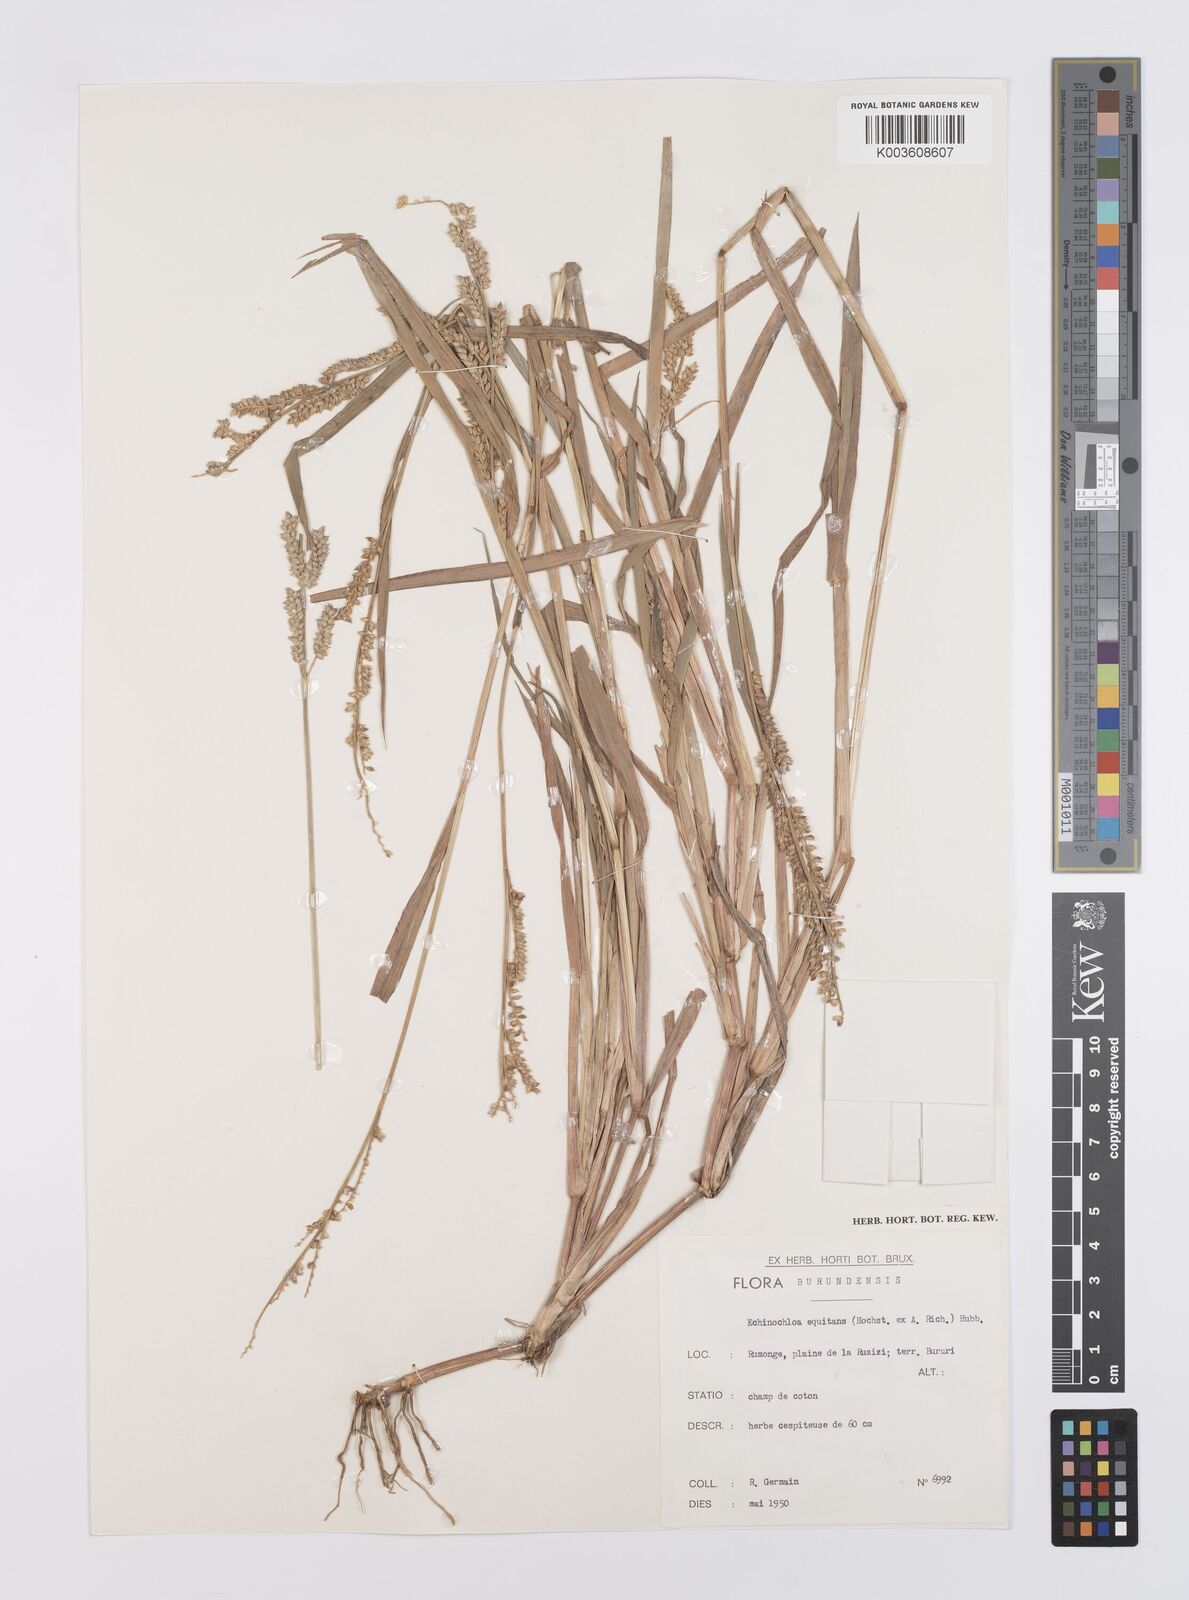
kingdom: Plantae
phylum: Tracheophyta
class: Liliopsida
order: Poales
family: Poaceae
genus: Echinochloa
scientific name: Echinochloa colonum
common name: Jungle rice
